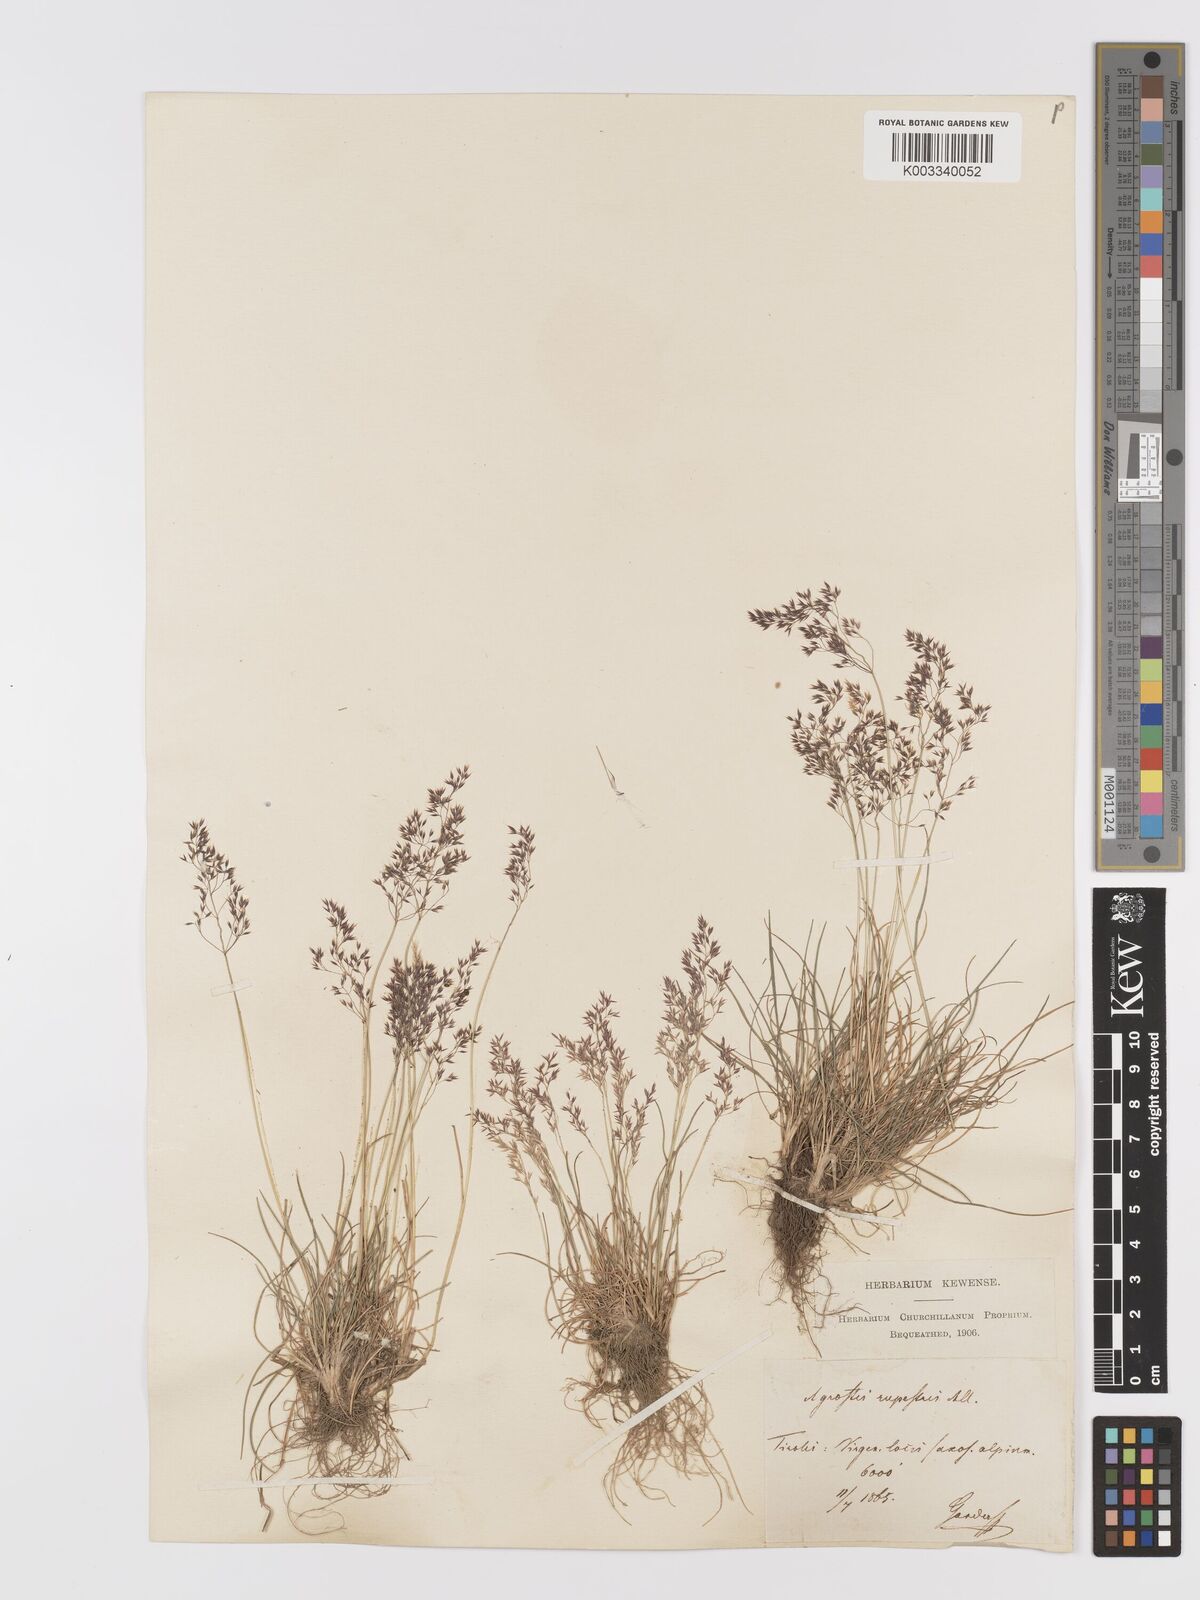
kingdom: Plantae
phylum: Tracheophyta
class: Liliopsida
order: Poales
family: Poaceae
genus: Agrostis
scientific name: Agrostis rupestris
